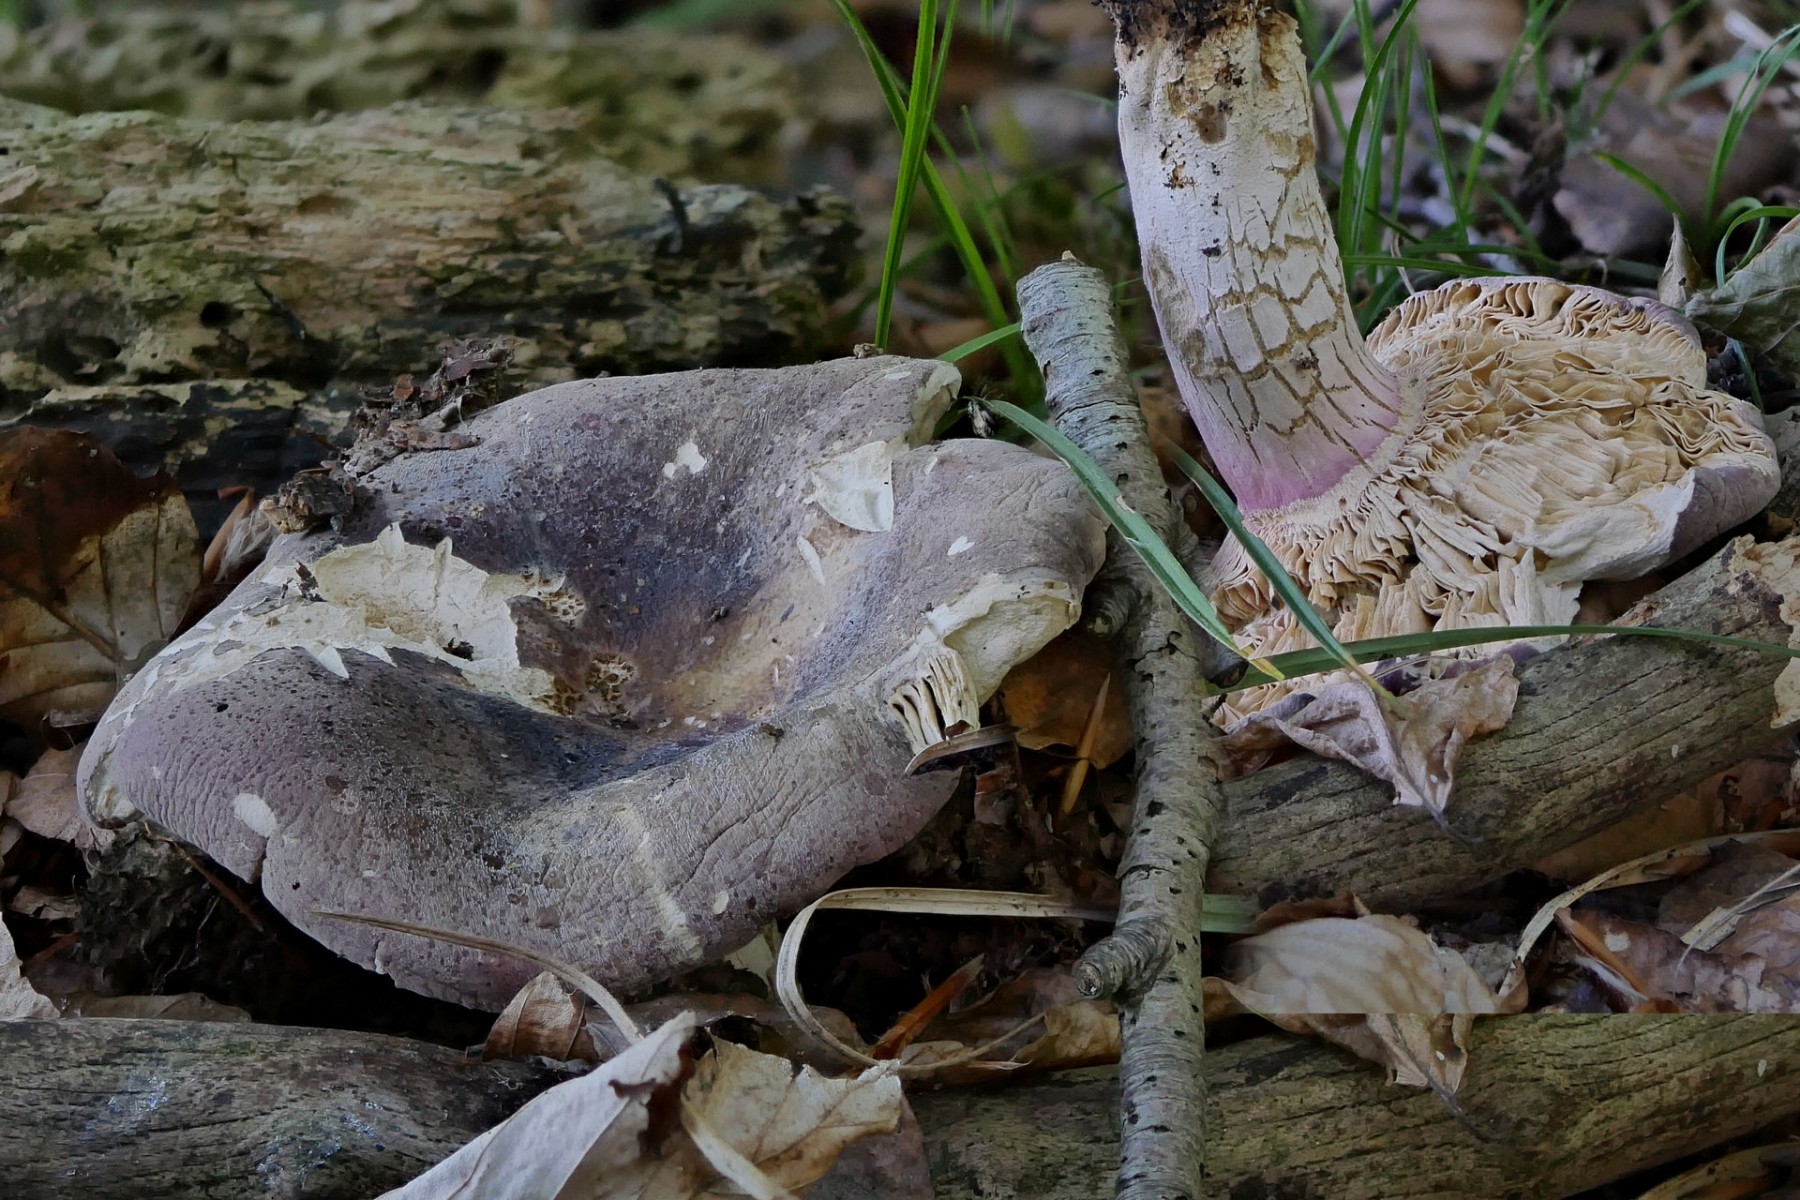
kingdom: Fungi
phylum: Basidiomycota
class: Agaricomycetes
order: Russulales
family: Russulaceae
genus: Russula
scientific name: Russula olivacea
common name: stor skørhat
